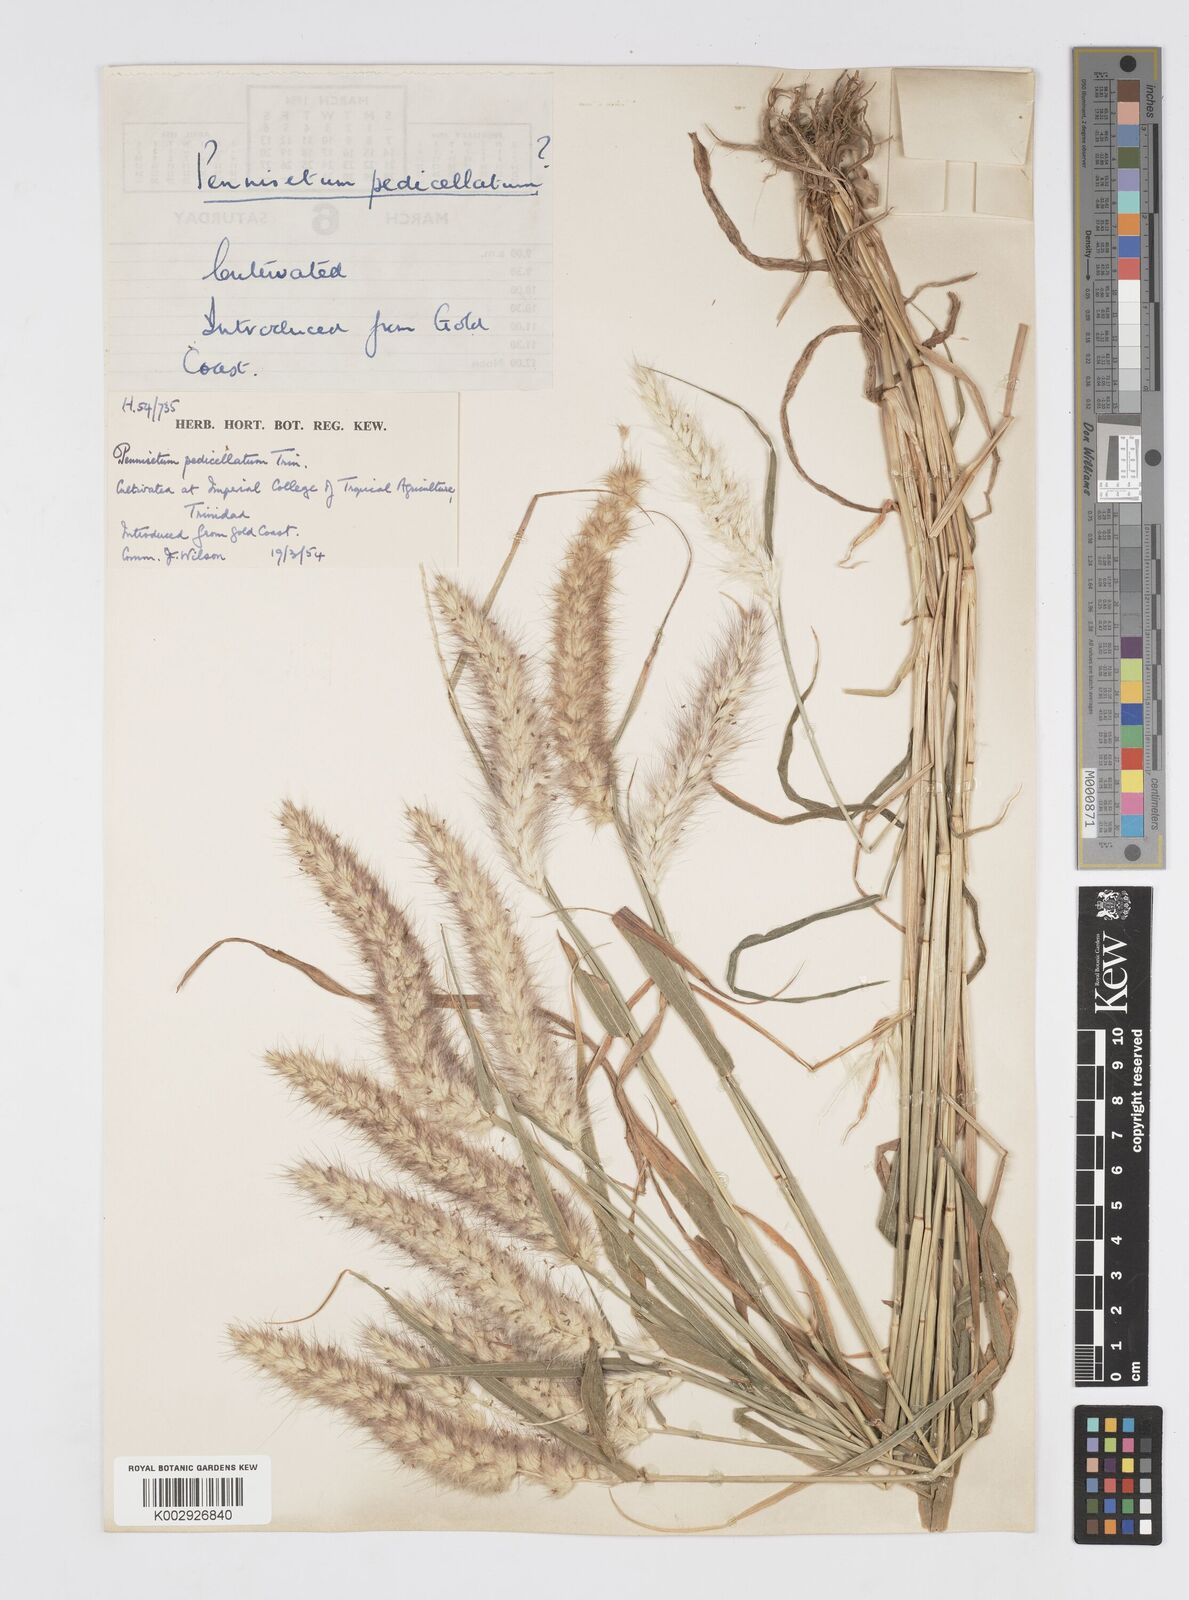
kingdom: Plantae
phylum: Tracheophyta
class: Liliopsida
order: Poales
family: Poaceae
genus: Cenchrus
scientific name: Cenchrus pedicellatus
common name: Hairy fountain grass
